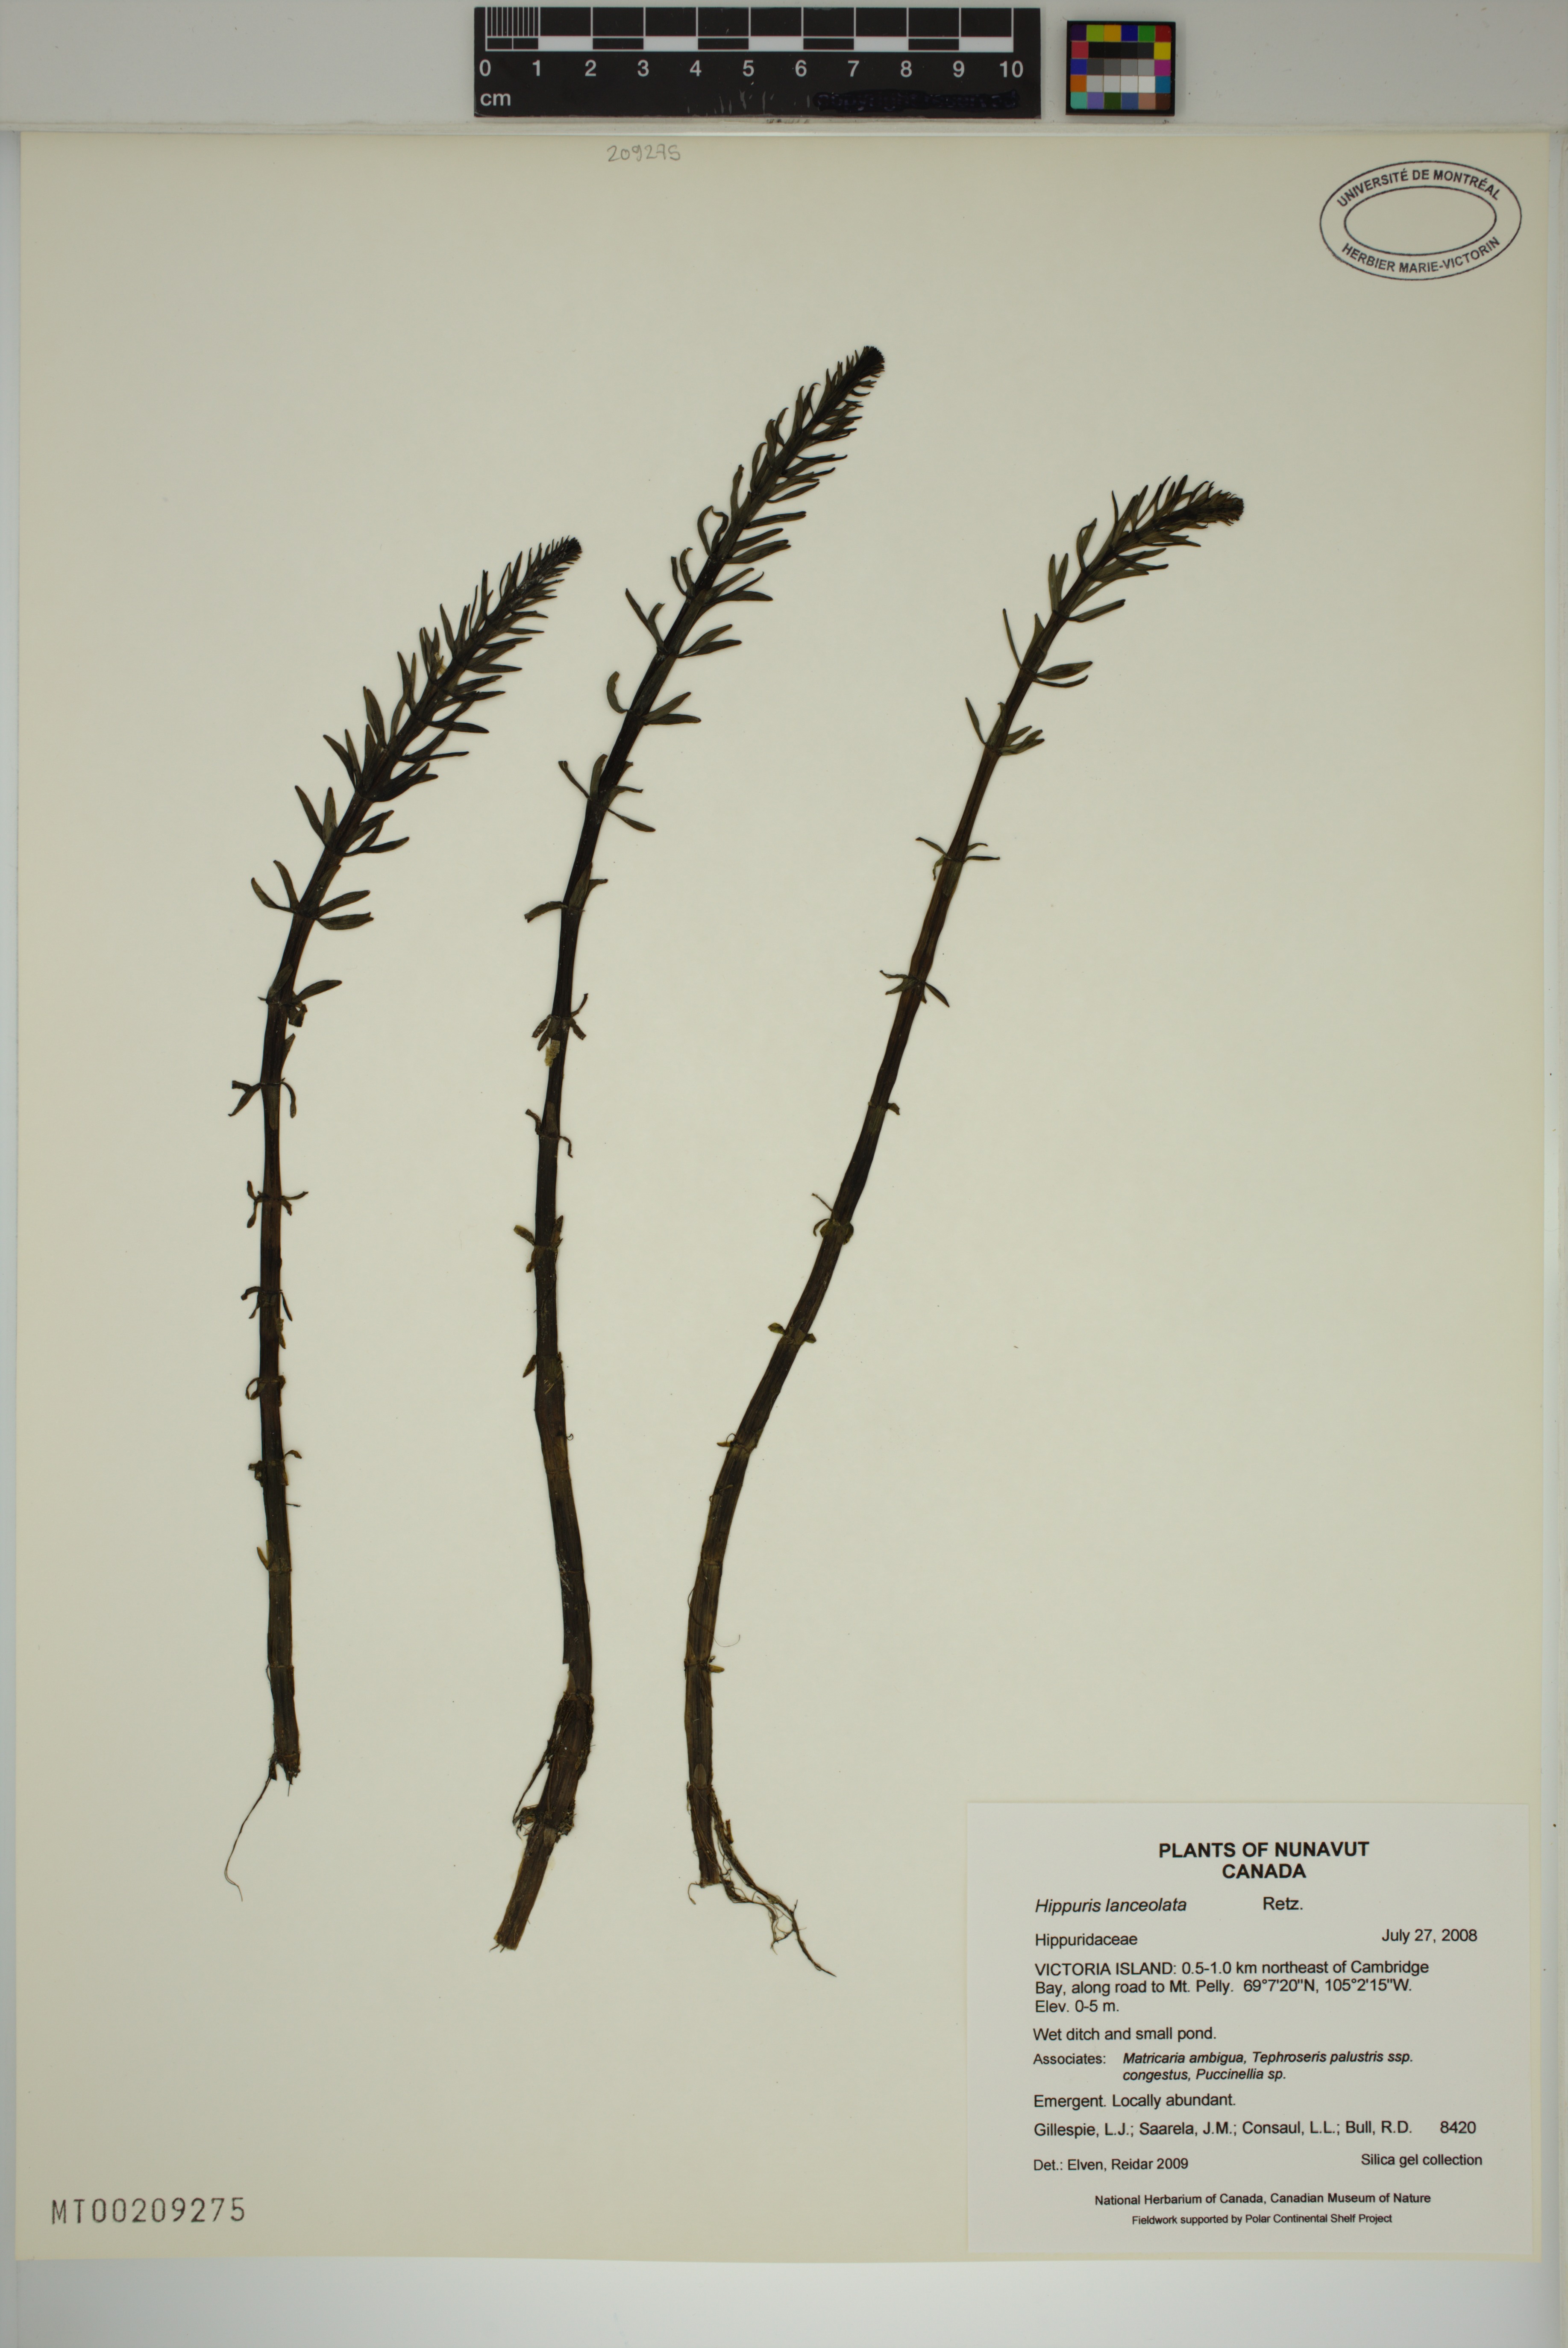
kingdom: Plantae
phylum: Tracheophyta
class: Magnoliopsida
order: Lamiales
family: Plantaginaceae
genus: Hippuris
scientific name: Hippuris lanceolata
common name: Lance-leaved mare's-tail
